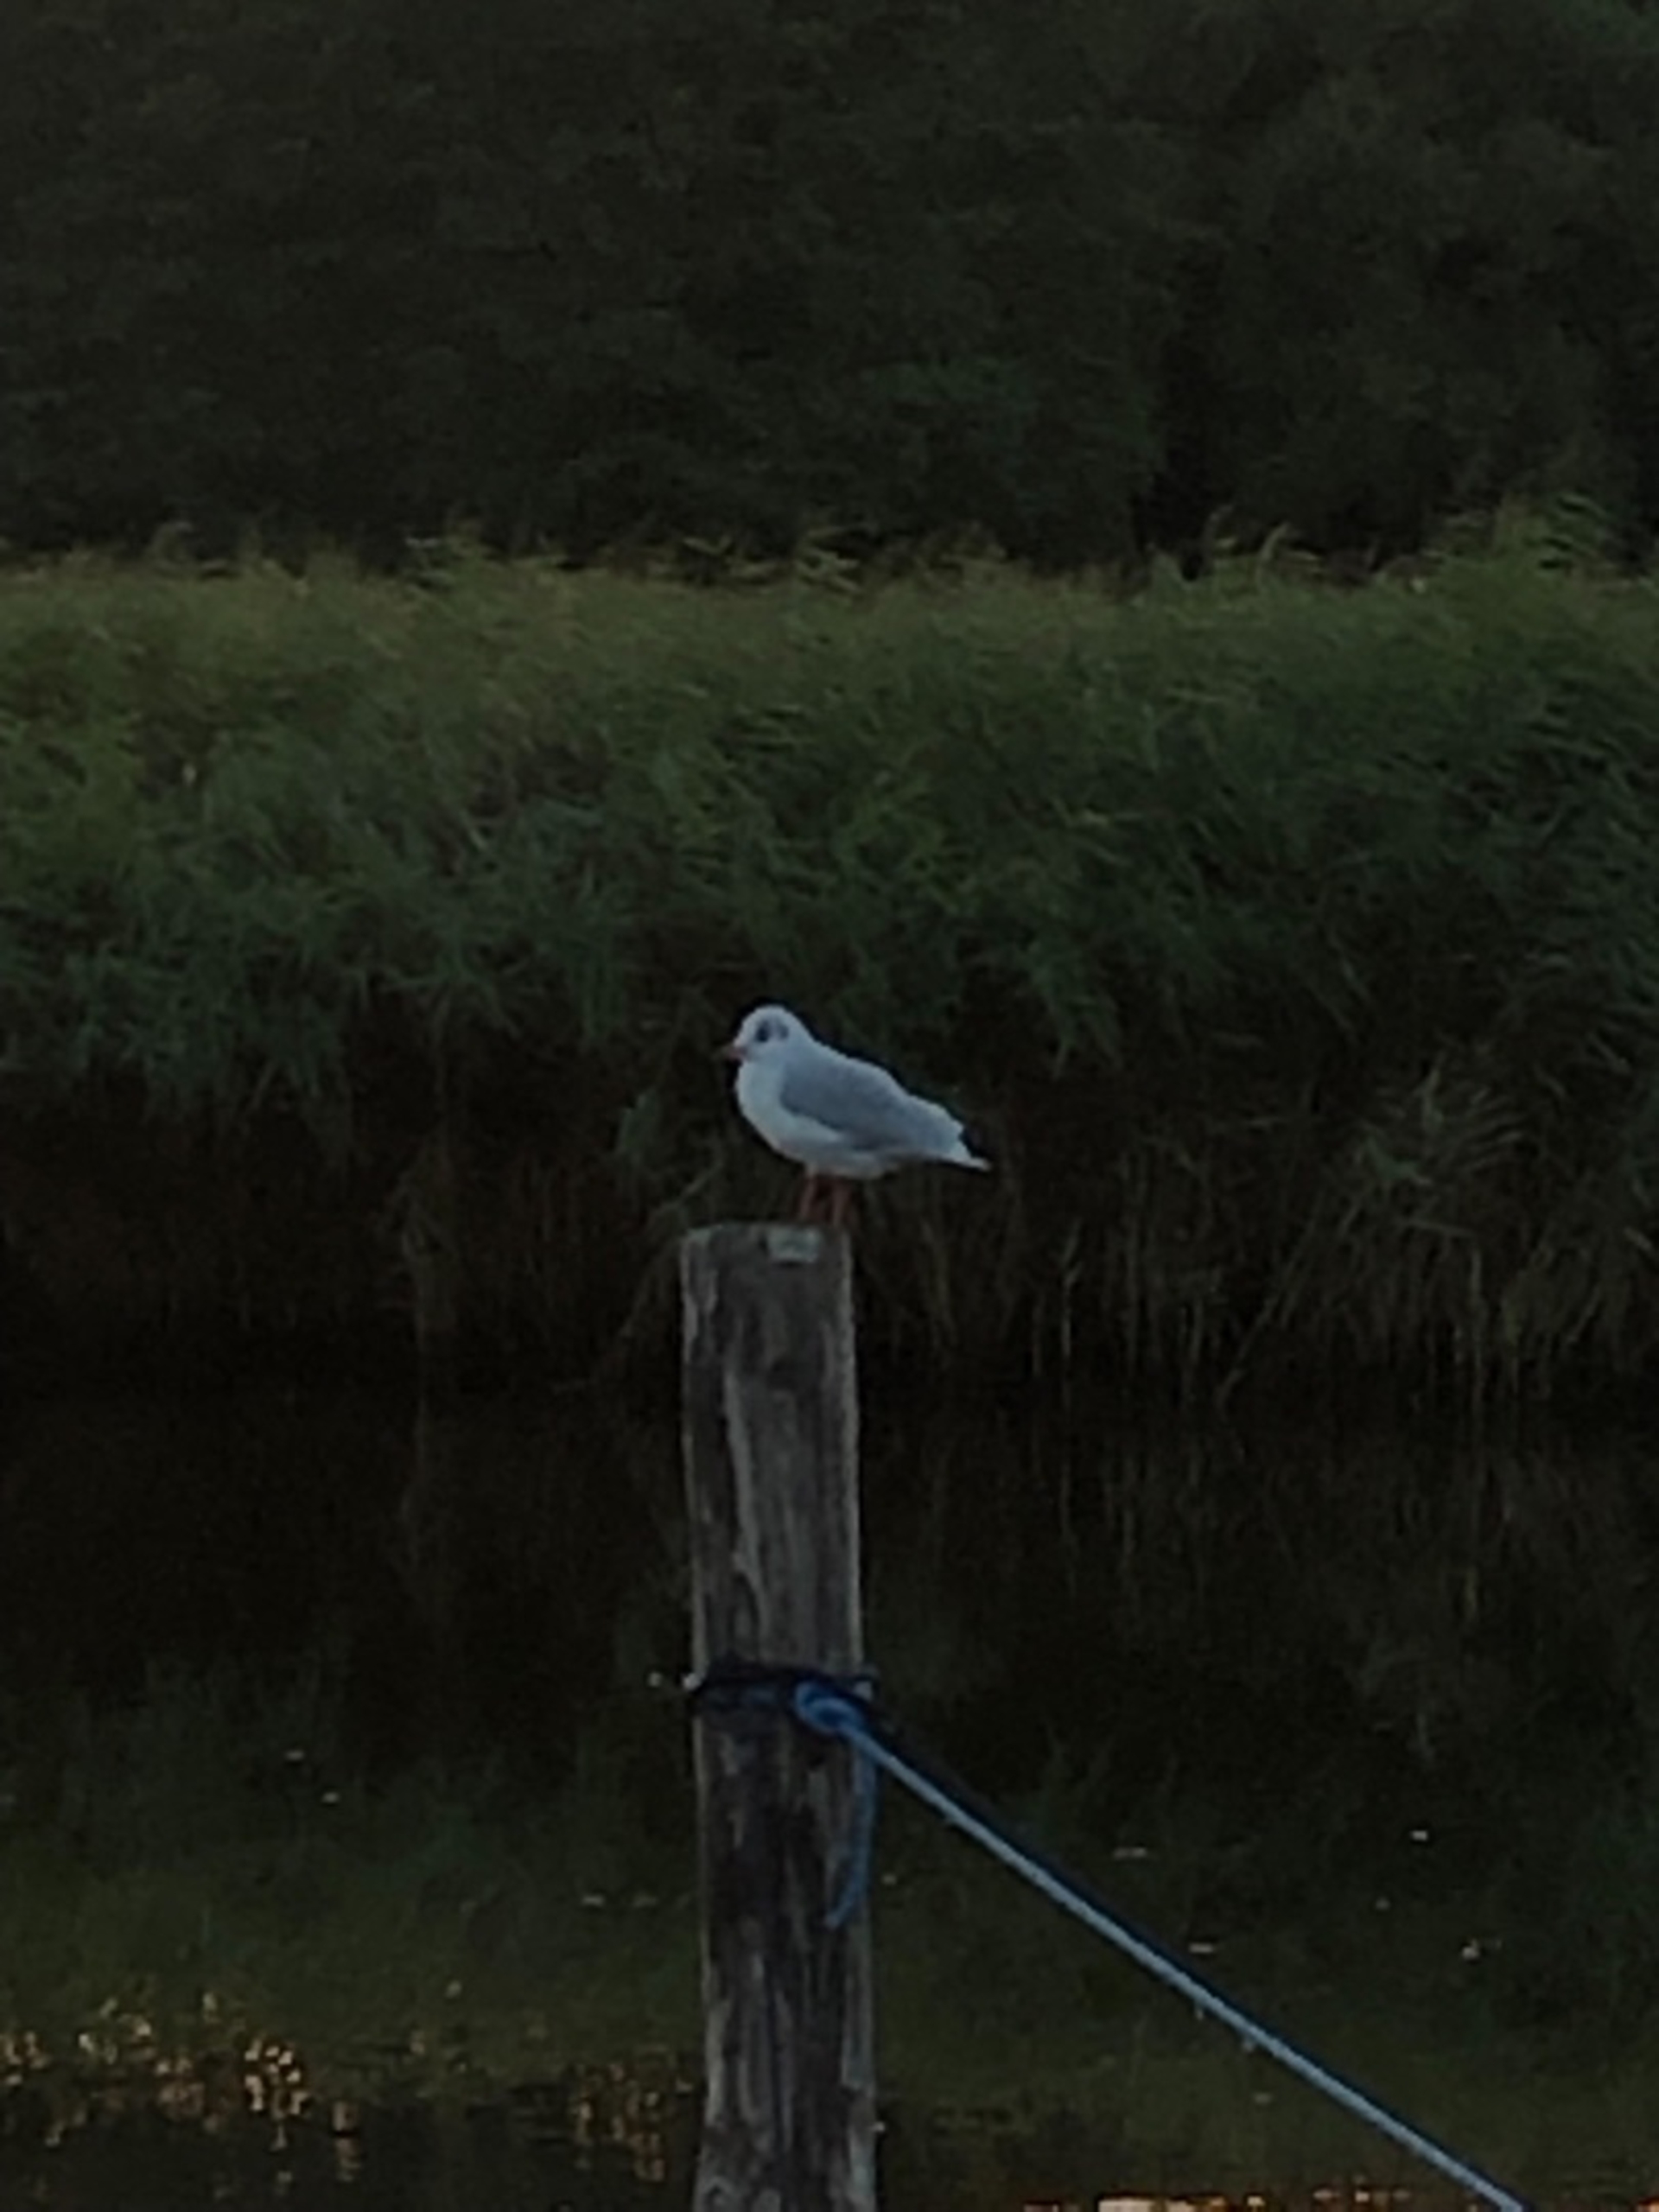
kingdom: Animalia
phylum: Chordata
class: Aves
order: Charadriiformes
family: Laridae
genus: Chroicocephalus
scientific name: Chroicocephalus ridibundus
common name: Hættemåge
